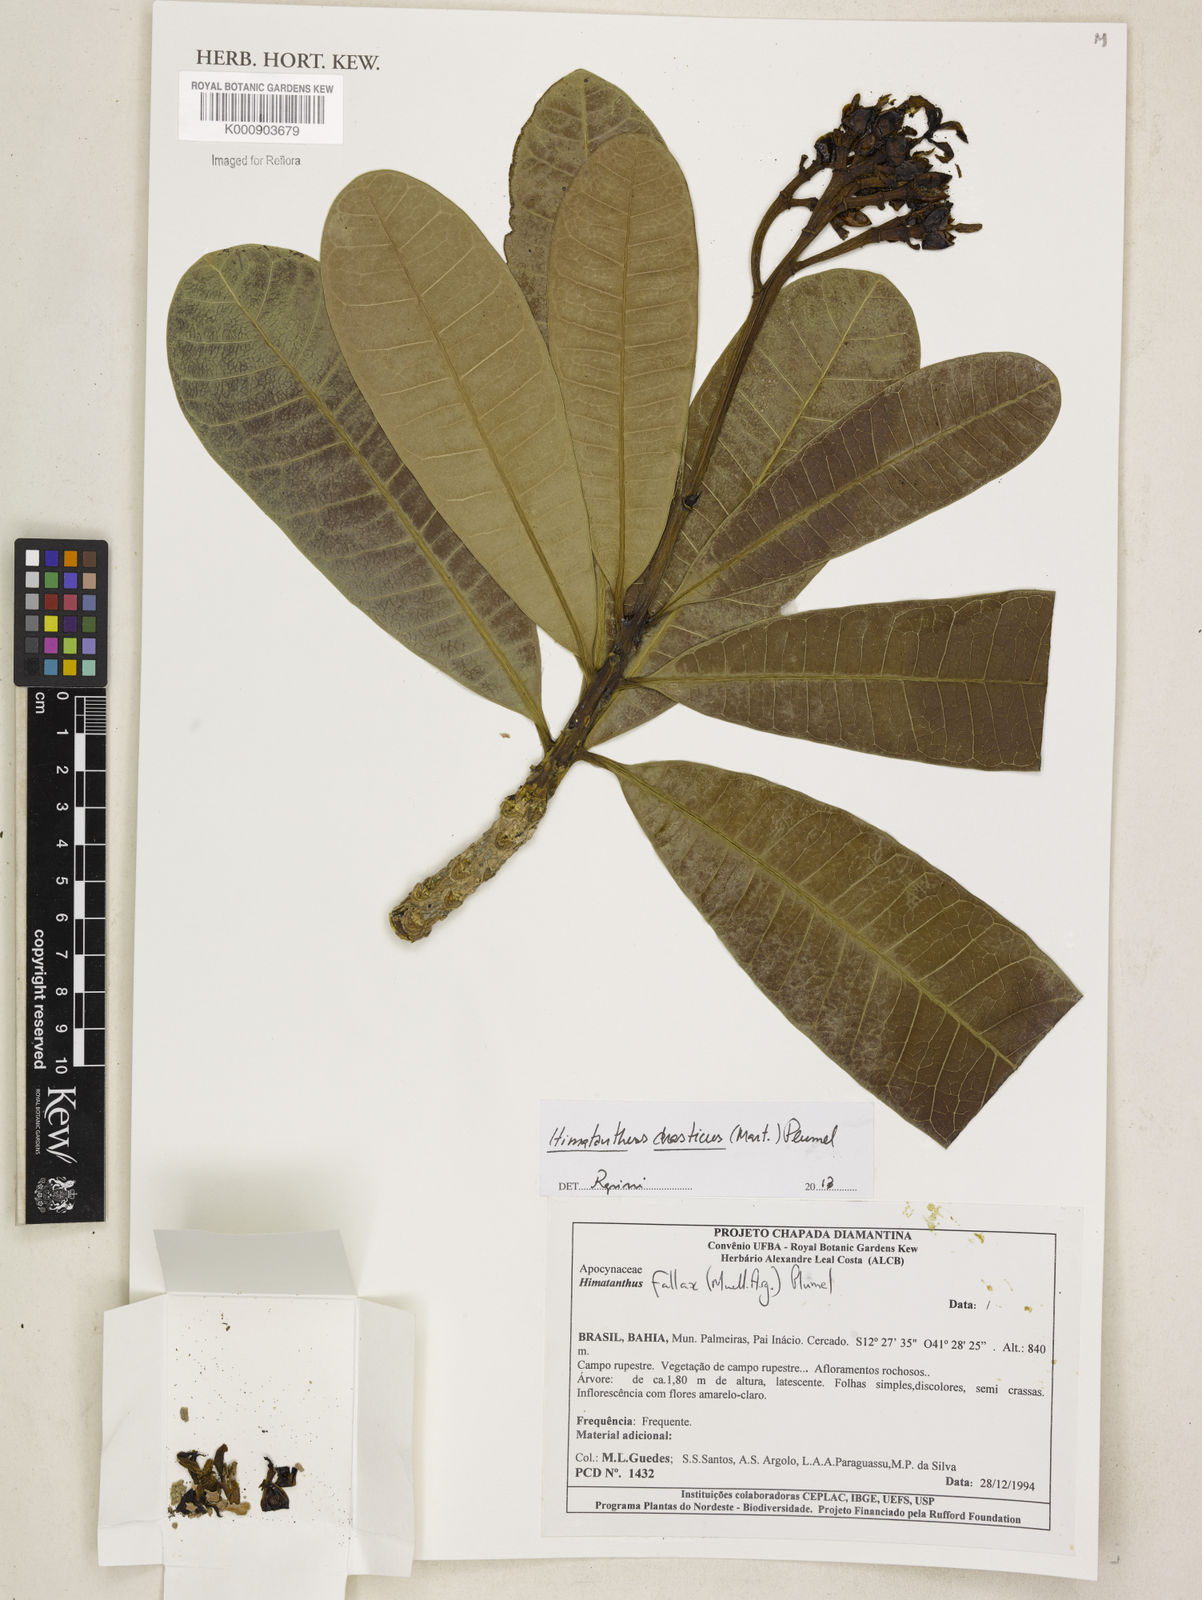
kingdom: Plantae
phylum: Tracheophyta
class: Magnoliopsida
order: Gentianales
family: Apocynaceae
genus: Himatanthus
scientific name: Himatanthus
